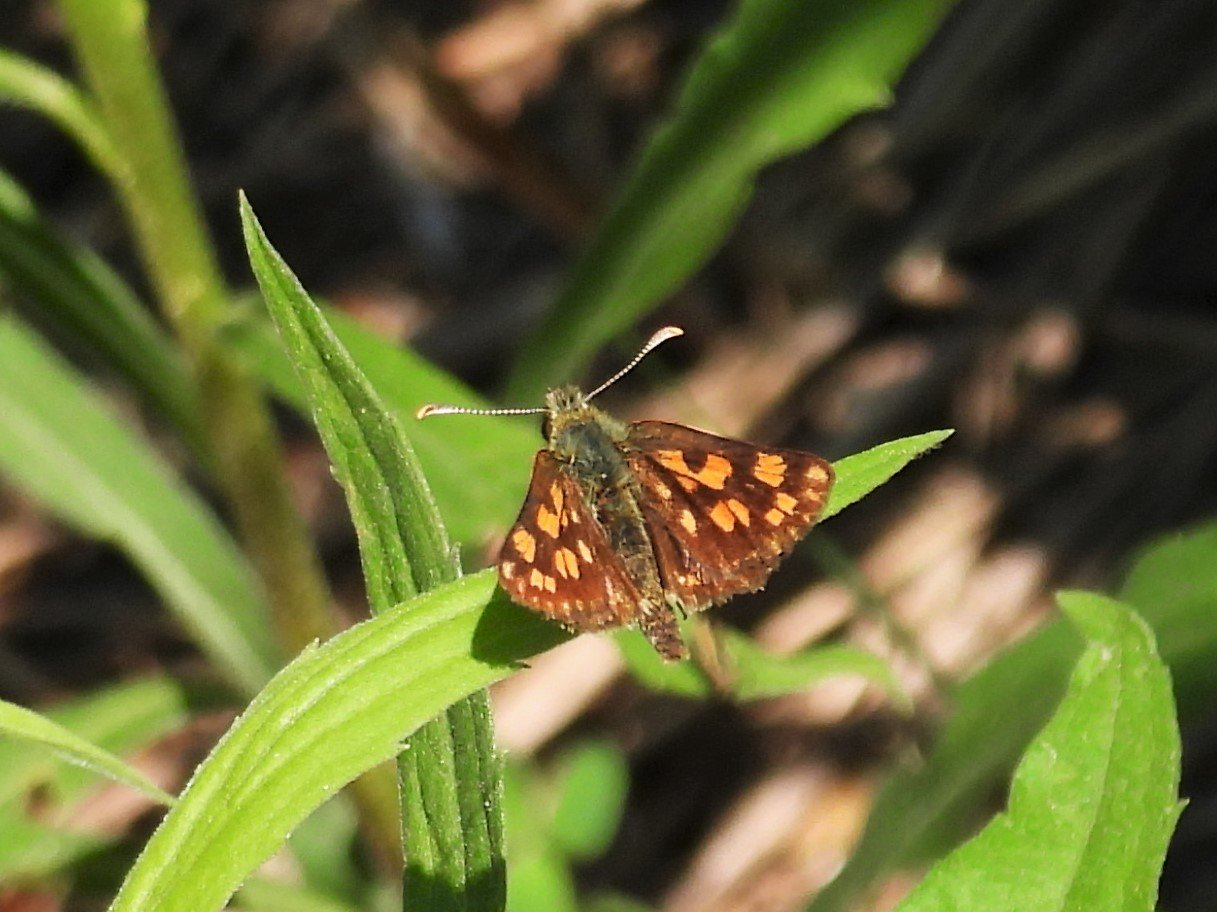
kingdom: Animalia
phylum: Arthropoda
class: Insecta
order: Lepidoptera
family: Hesperiidae
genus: Carterocephalus
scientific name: Carterocephalus palaemon
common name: Chequered Skipper
